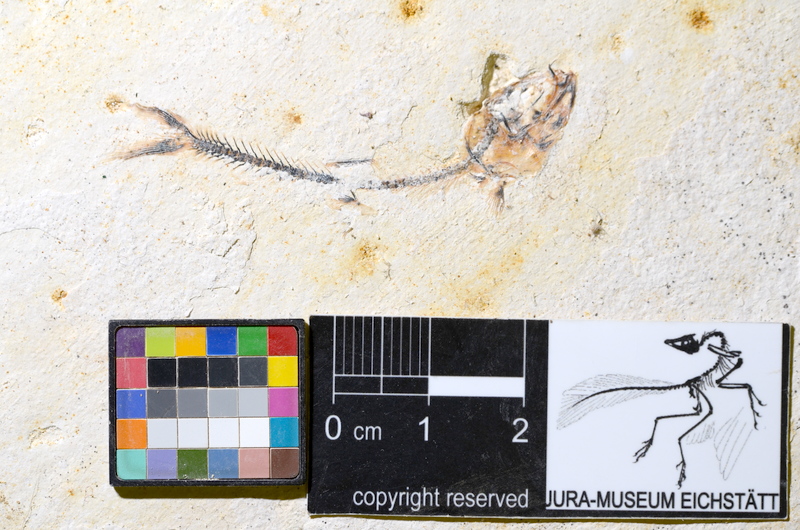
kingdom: Animalia
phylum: Chordata
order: Salmoniformes
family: Orthogonikleithridae
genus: Orthogonikleithrus
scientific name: Orthogonikleithrus hoelli
